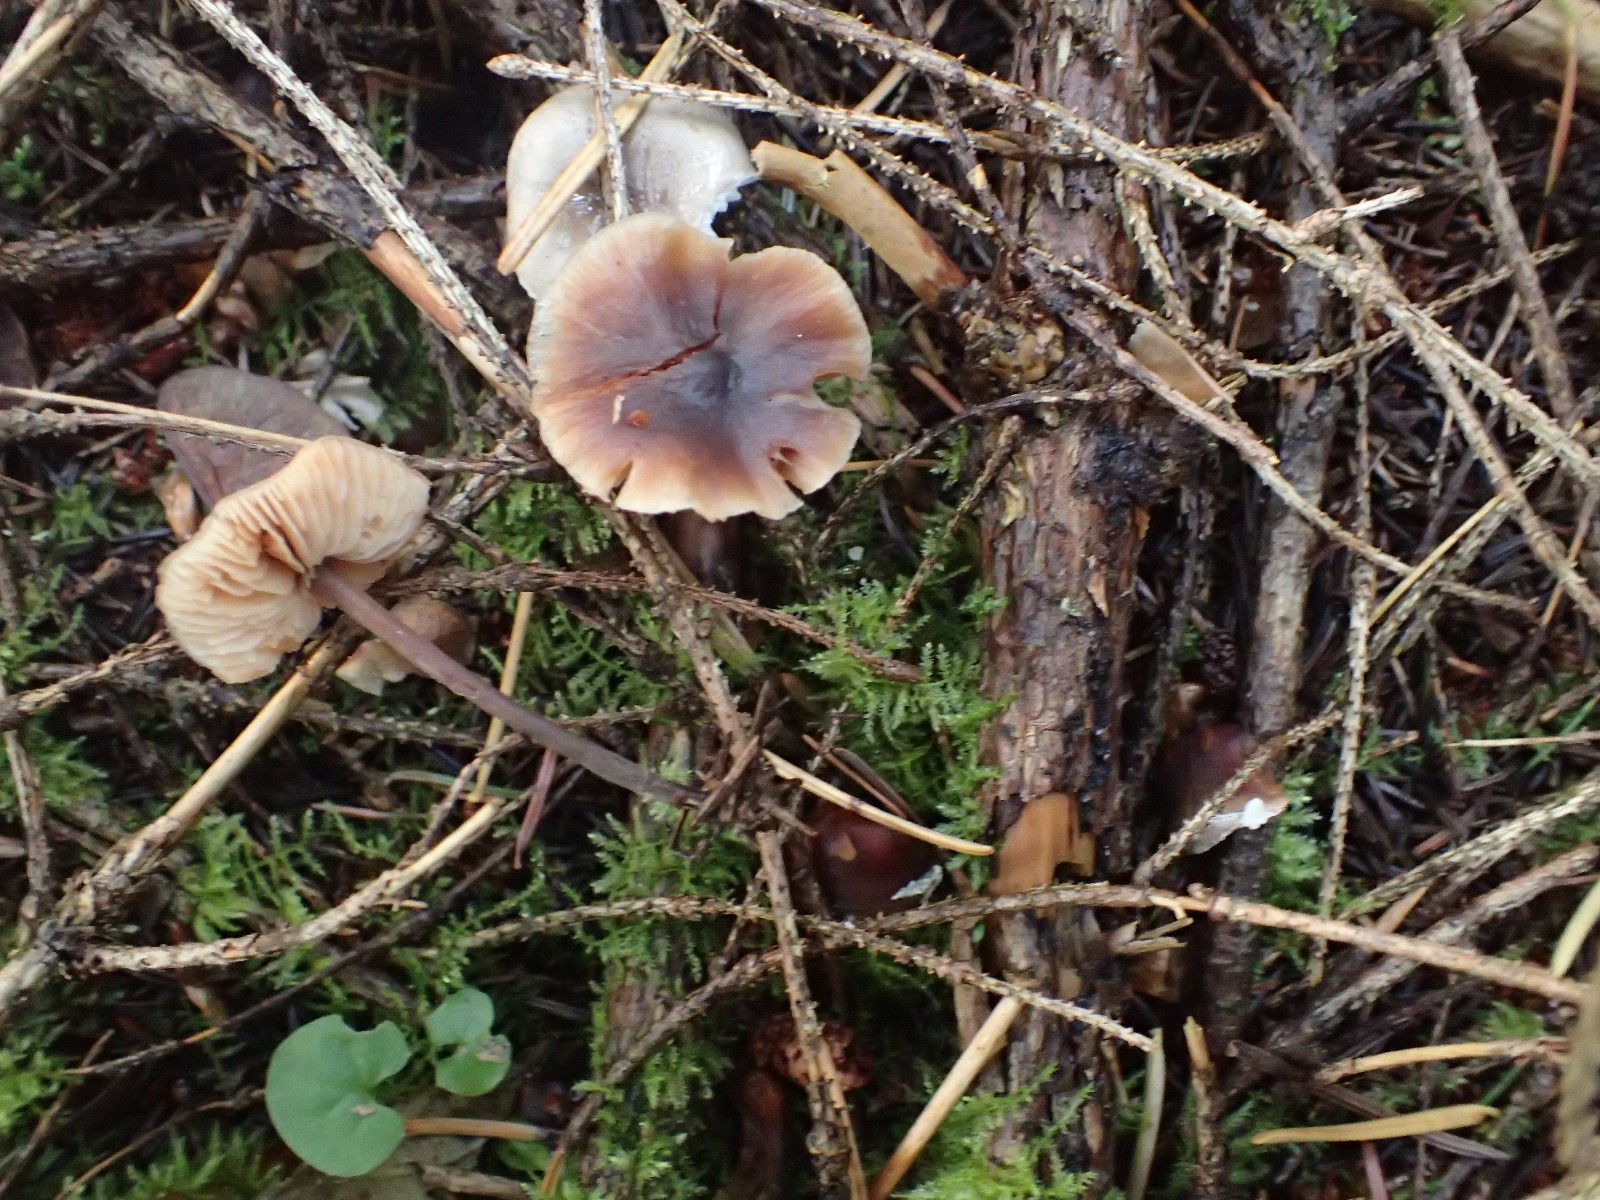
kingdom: Fungi
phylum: Basidiomycota
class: Agaricomycetes
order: Agaricales
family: Macrocystidiaceae
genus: Macrocystidia
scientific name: Macrocystidia cucumis
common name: agurkehat
